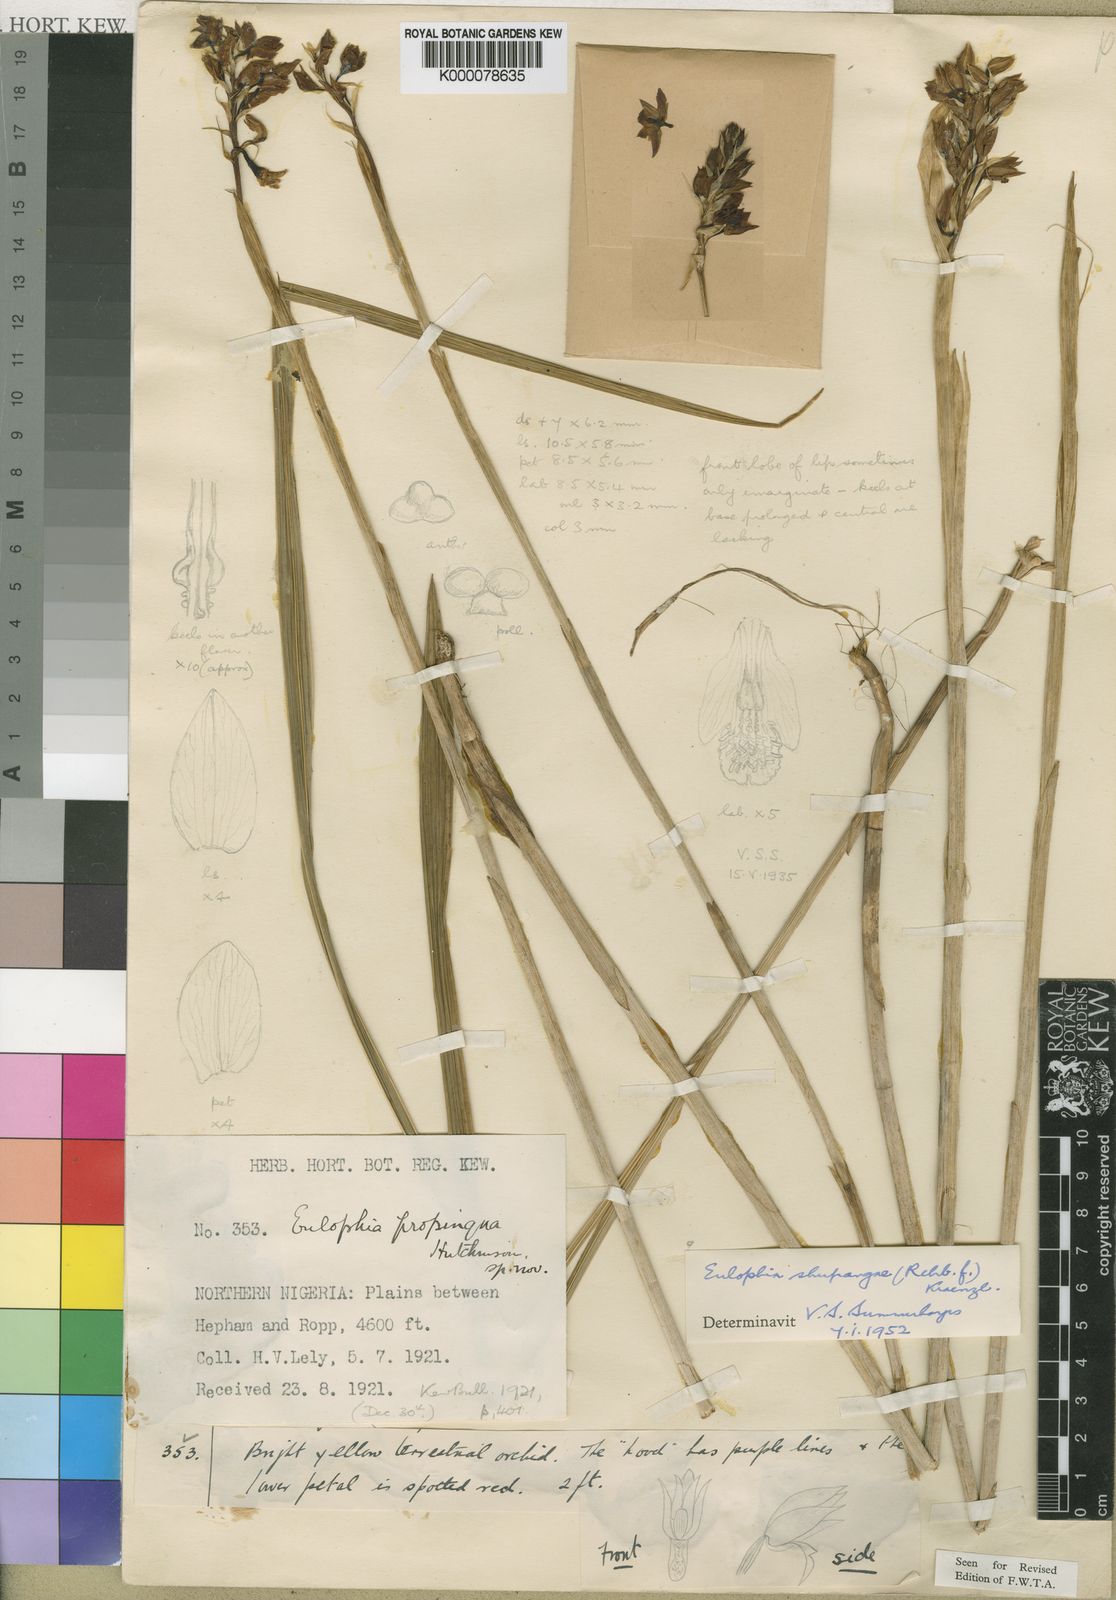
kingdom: Plantae
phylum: Tracheophyta
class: Liliopsida
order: Asparagales
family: Orchidaceae
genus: Eulophia
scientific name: Eulophia odontoglossa
